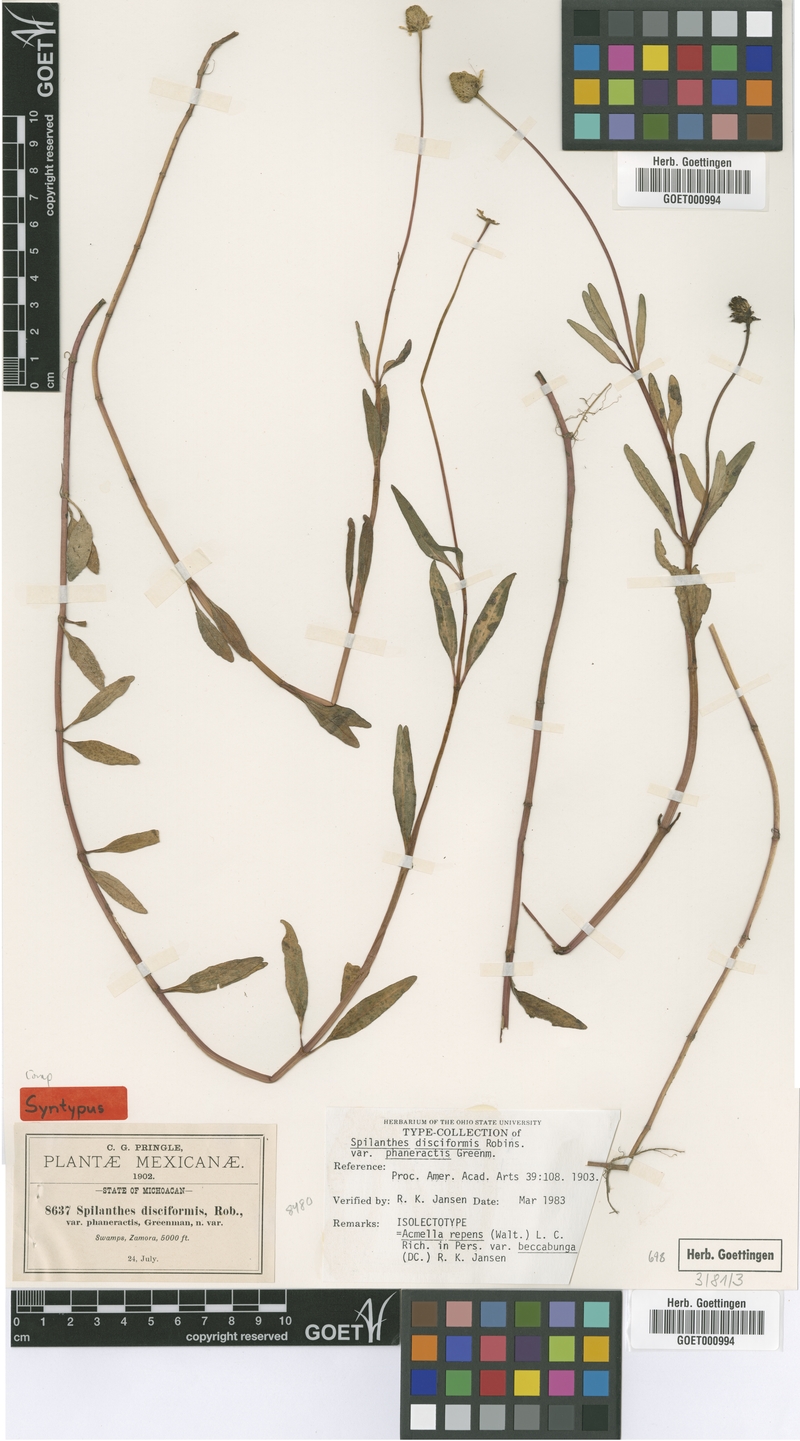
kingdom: Plantae
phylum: Tracheophyta
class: Magnoliopsida
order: Asterales
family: Asteraceae
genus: Acmella
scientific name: Acmella repens
